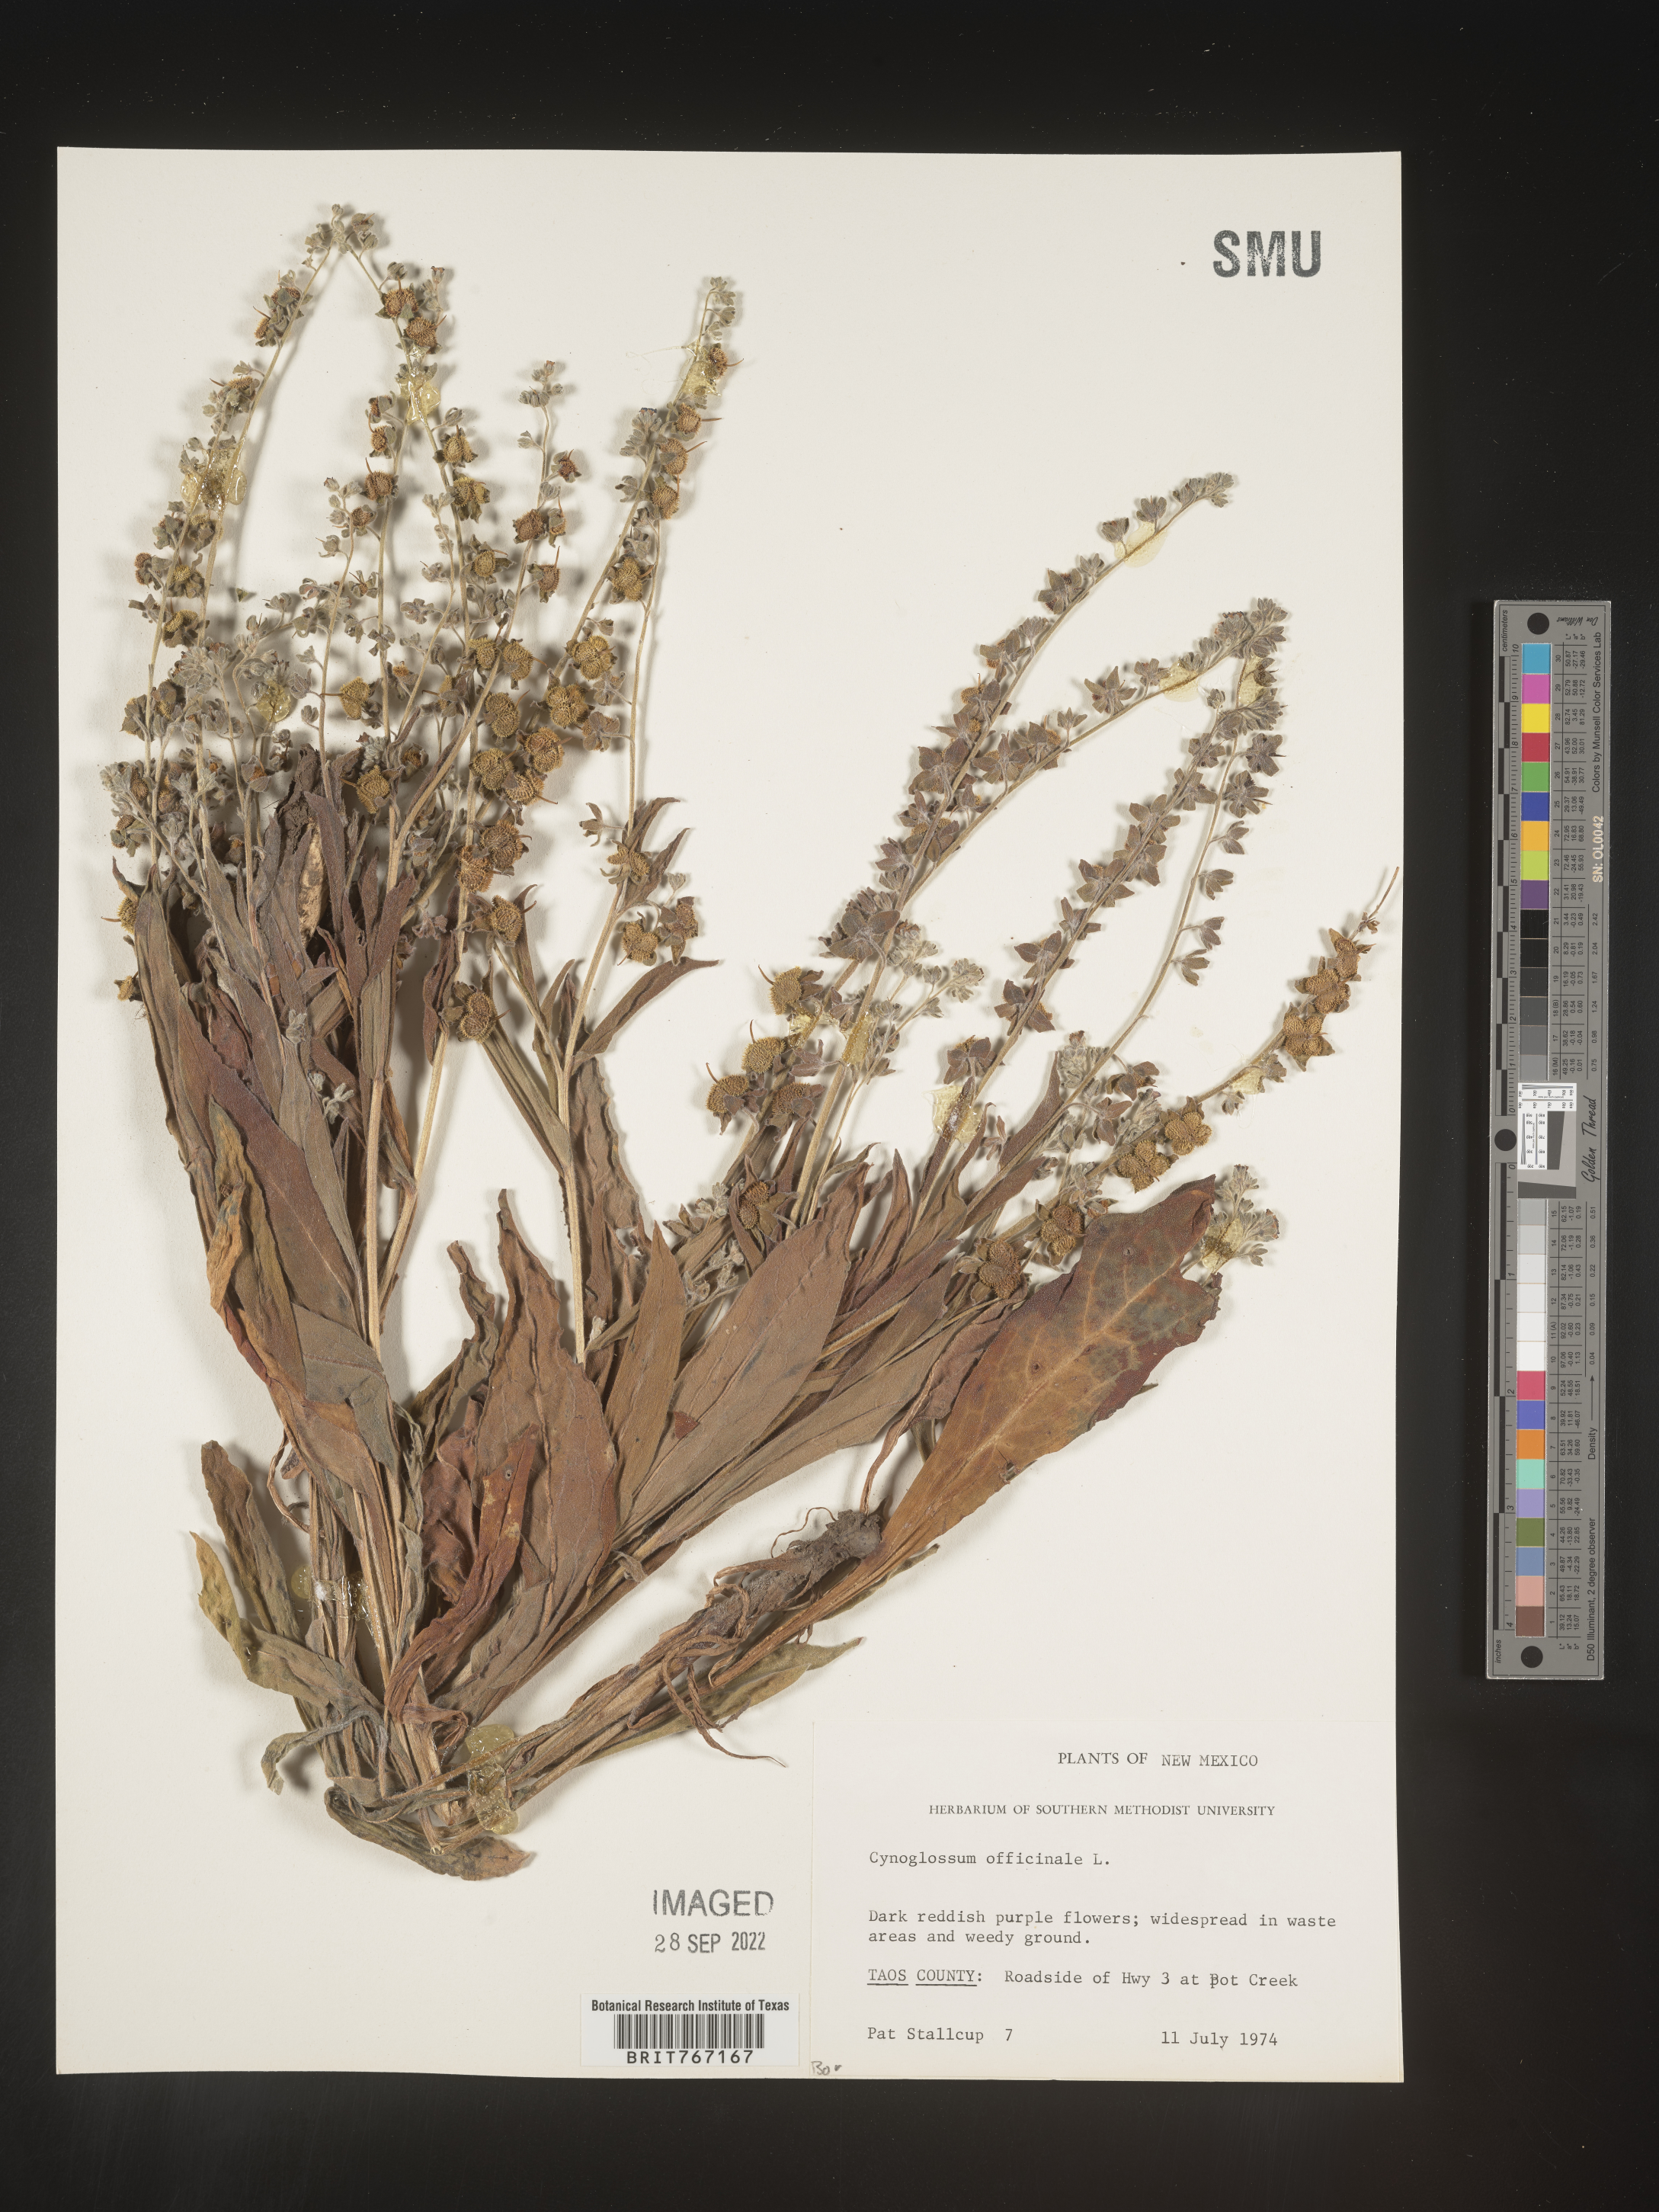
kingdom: Plantae
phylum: Tracheophyta
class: Magnoliopsida
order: Boraginales
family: Boraginaceae
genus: Cynoglossum
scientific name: Cynoglossum officinale
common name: Hound's-tongue
